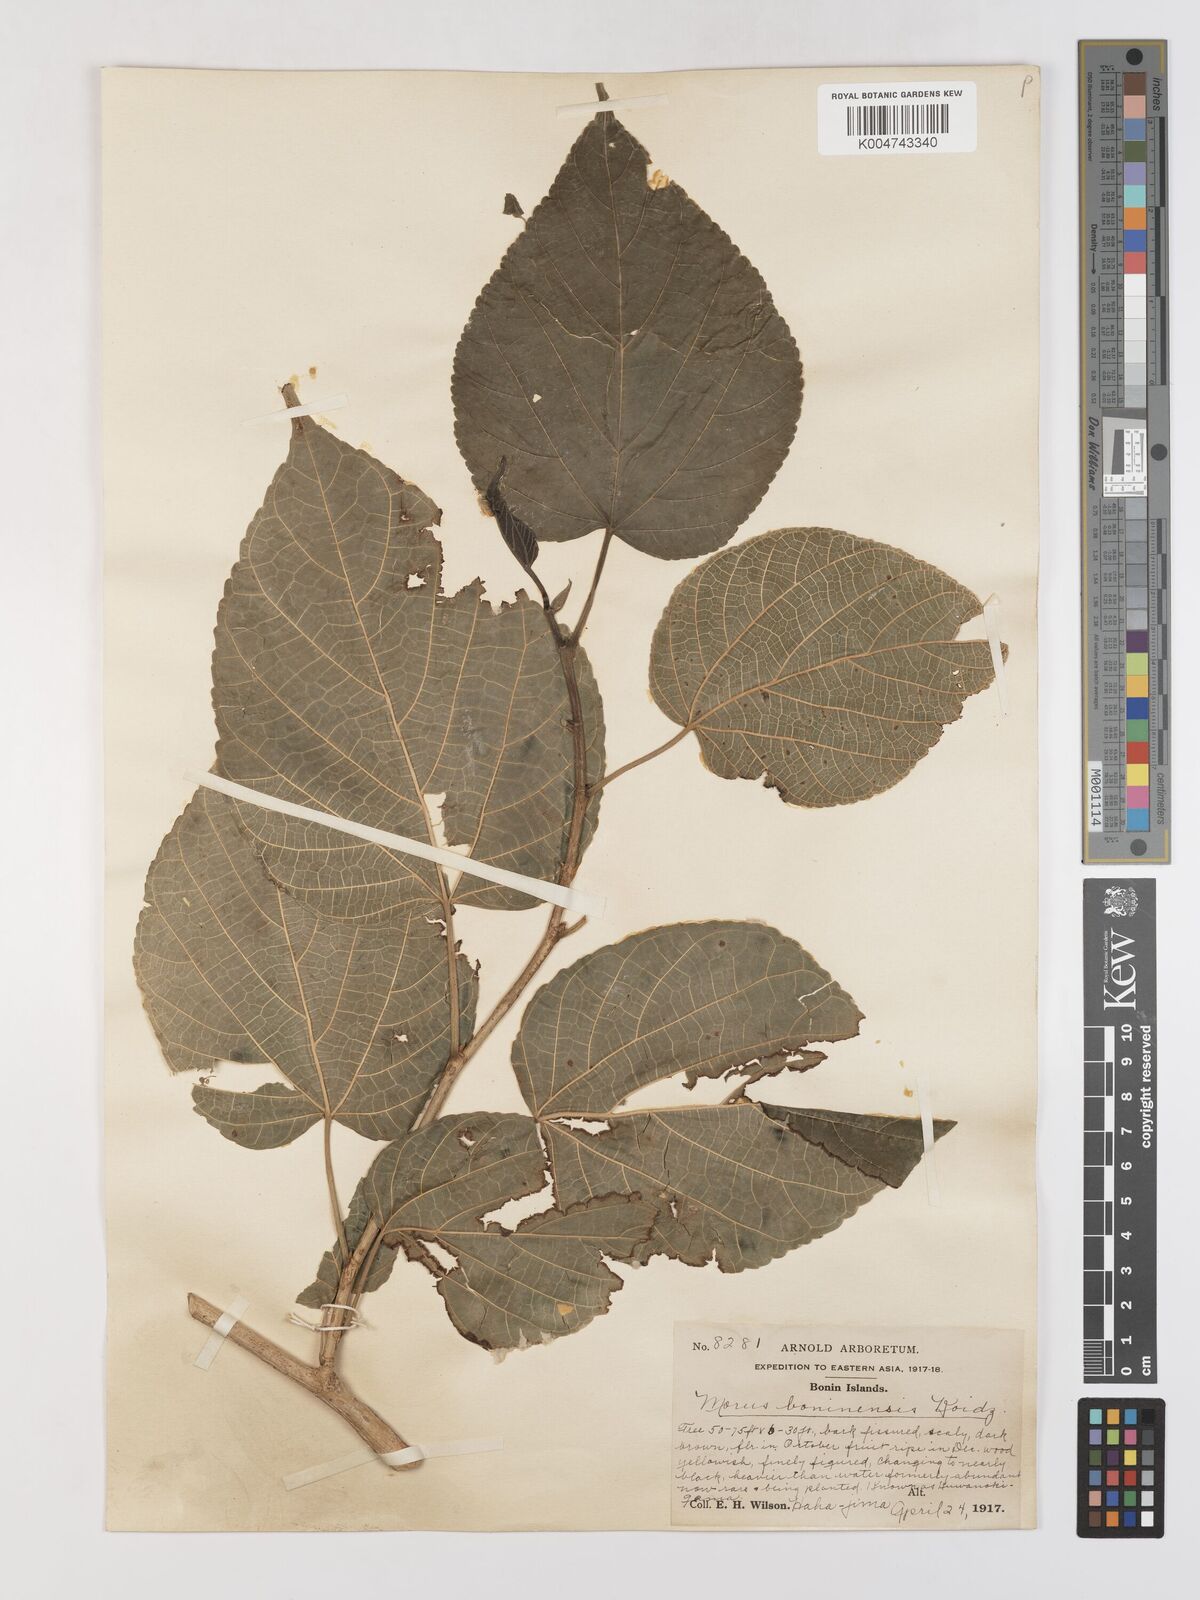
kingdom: Plantae
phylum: Tracheophyta
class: Magnoliopsida
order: Rosales
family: Moraceae
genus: Morus
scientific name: Morus boninensis
